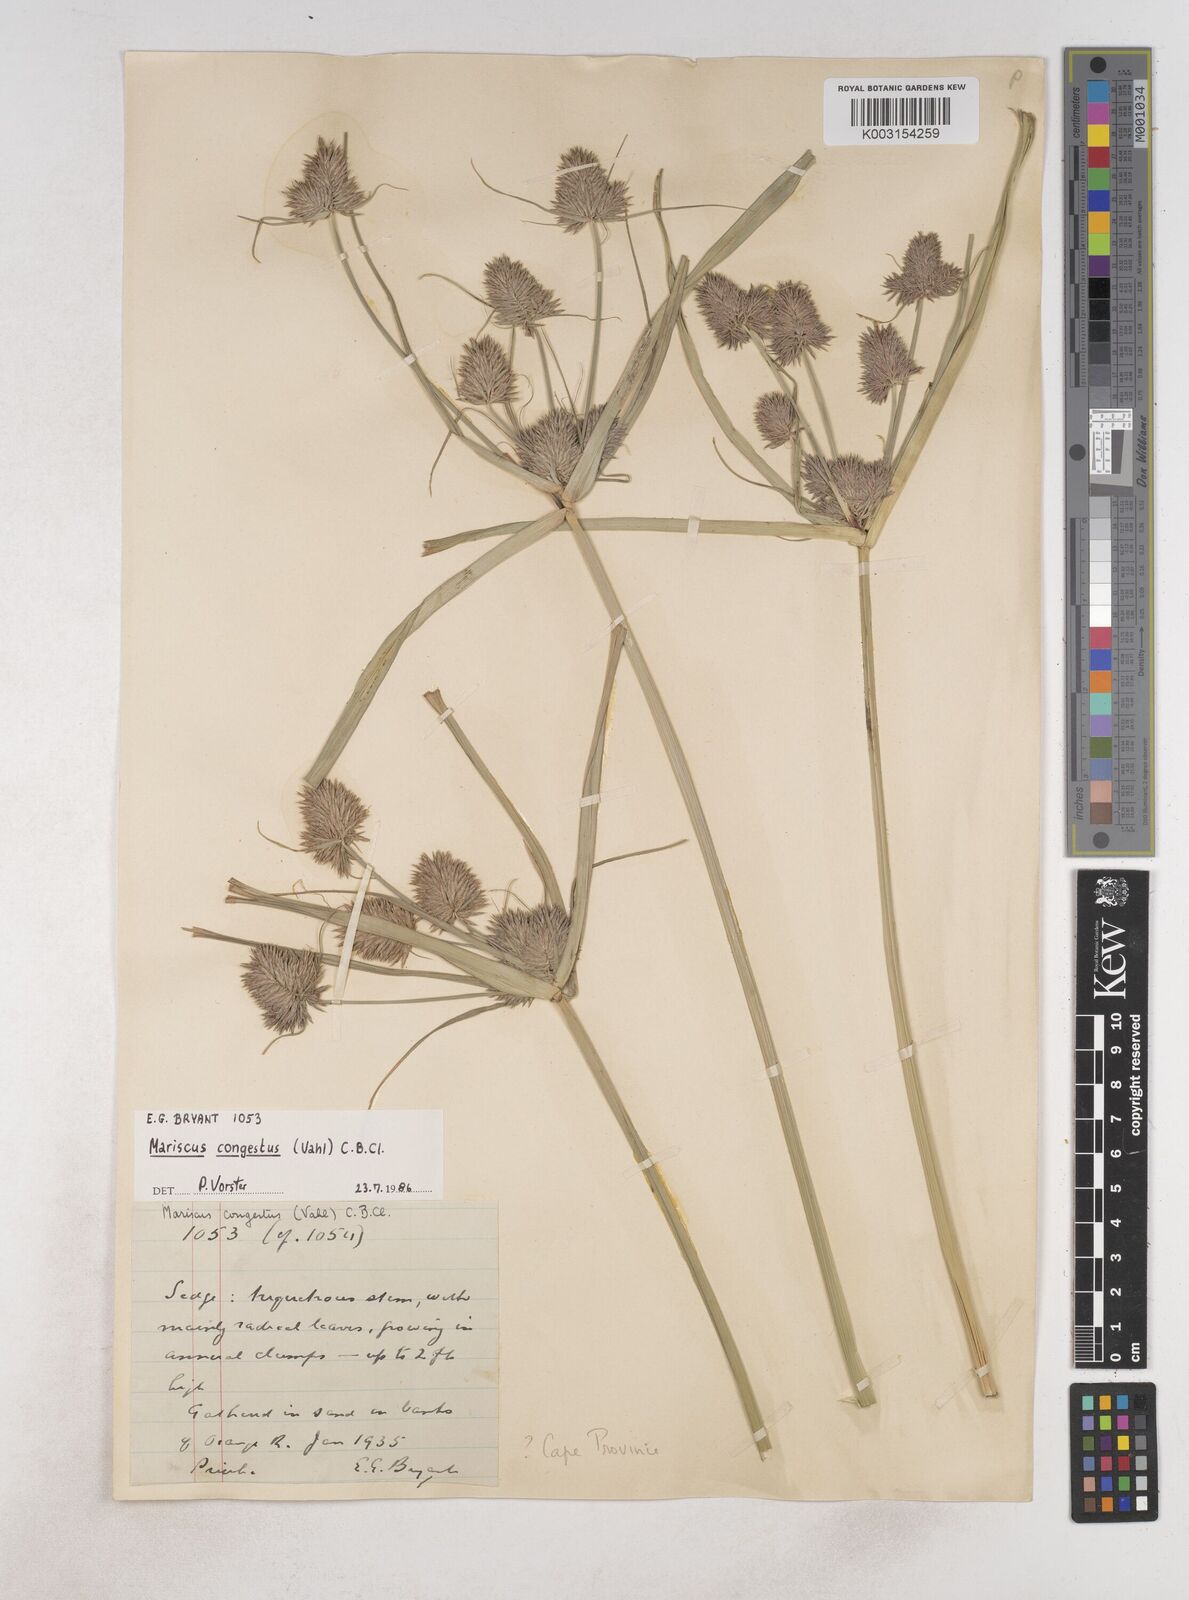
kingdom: Plantae
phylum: Tracheophyta
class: Liliopsida
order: Poales
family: Cyperaceae
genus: Cyperus
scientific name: Cyperus congestus
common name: Dense flat sedge
